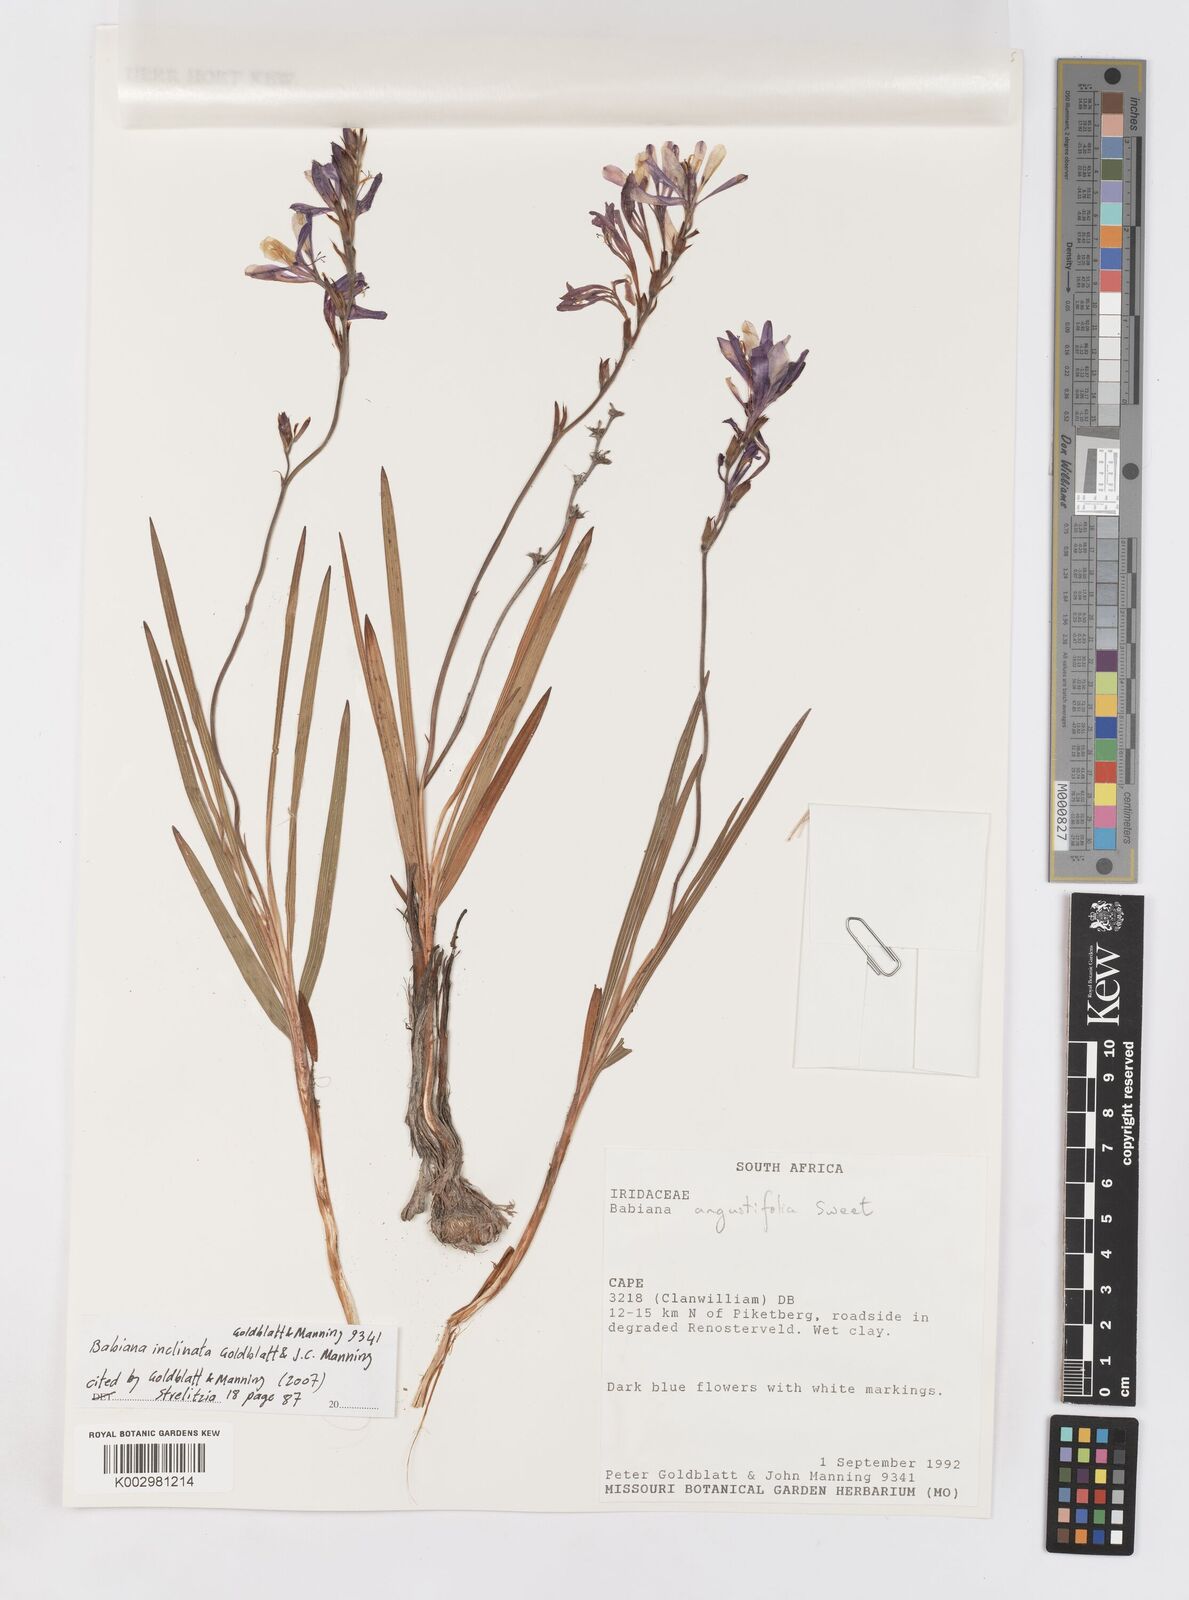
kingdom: Plantae
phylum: Tracheophyta
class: Liliopsida
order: Asparagales
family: Iridaceae
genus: Babiana
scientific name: Babiana inclinata
